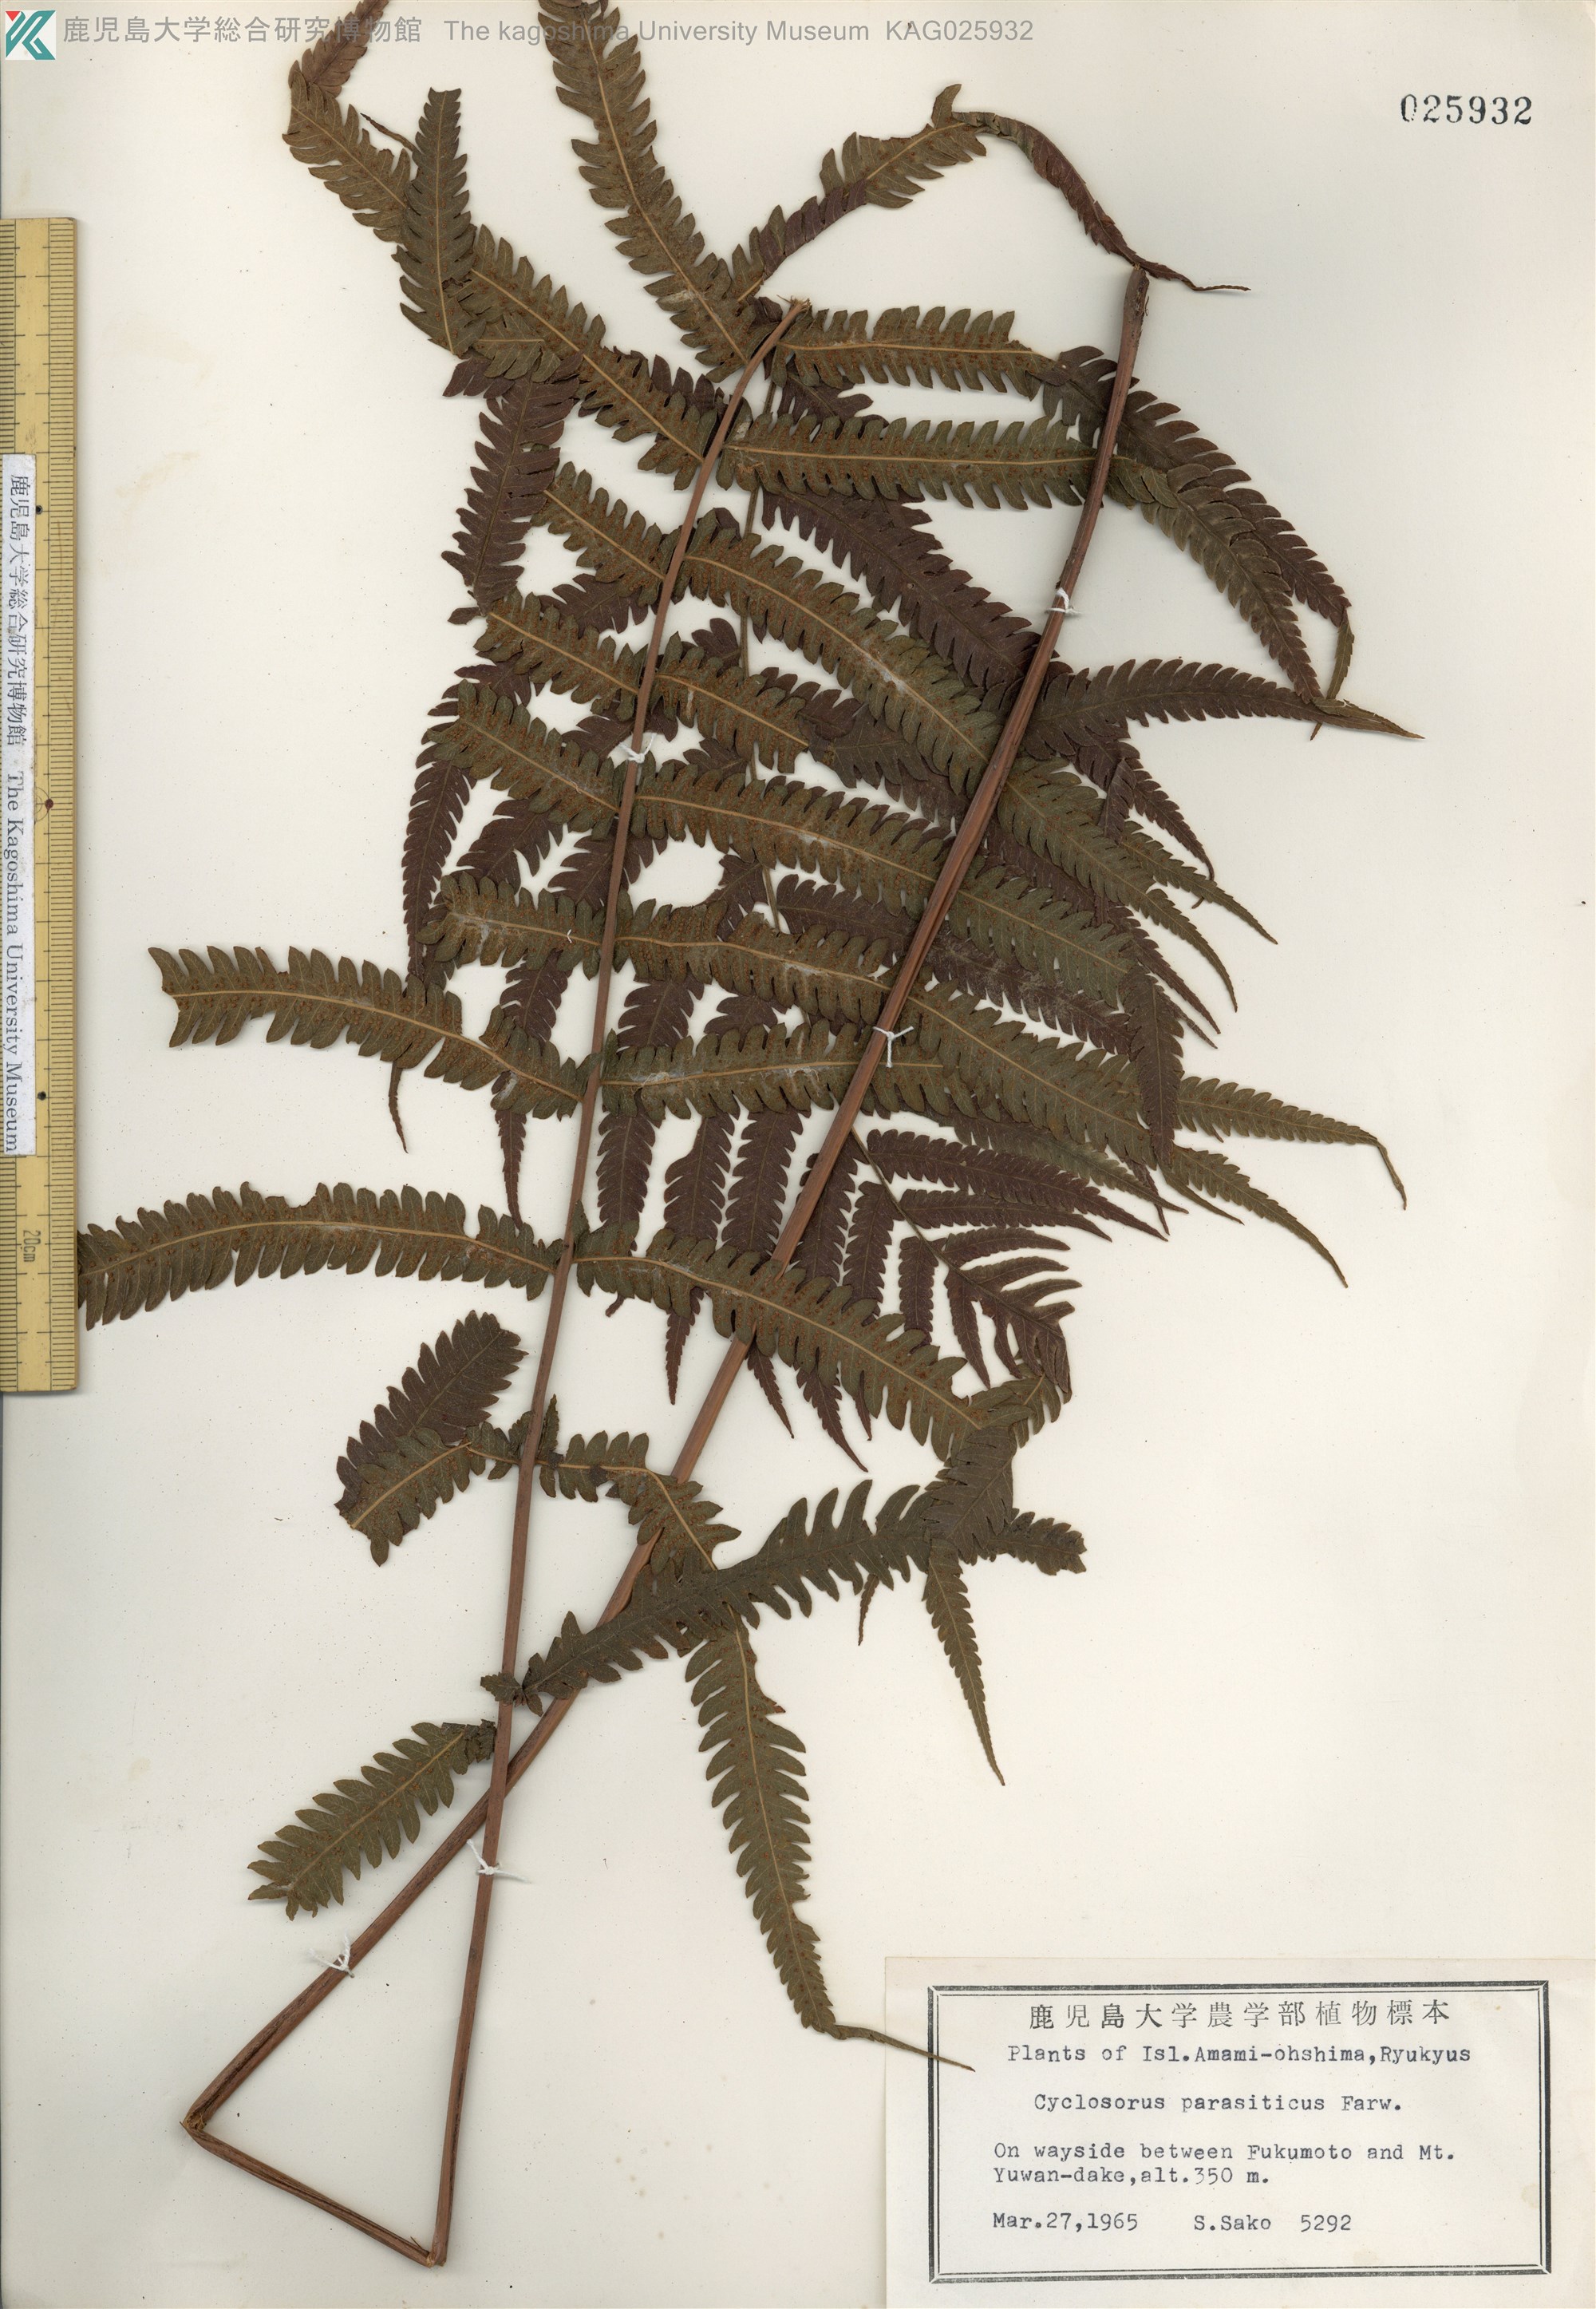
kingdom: Plantae
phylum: Tracheophyta
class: Polypodiopsida
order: Polypodiales
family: Thelypteridaceae
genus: Christella
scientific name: Christella parasitica
